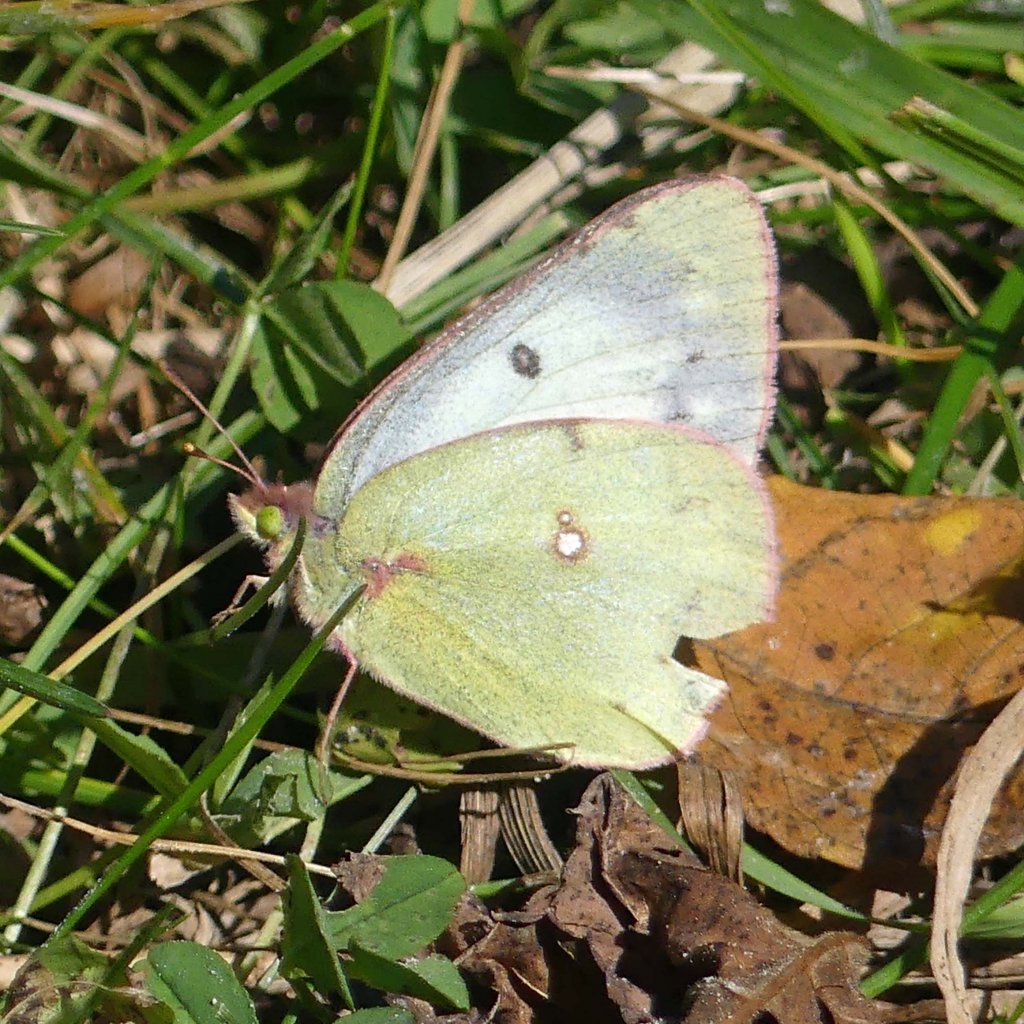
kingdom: Animalia
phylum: Arthropoda
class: Insecta
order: Lepidoptera
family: Pieridae
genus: Colias
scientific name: Colias philodice
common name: Clouded Sulphur
